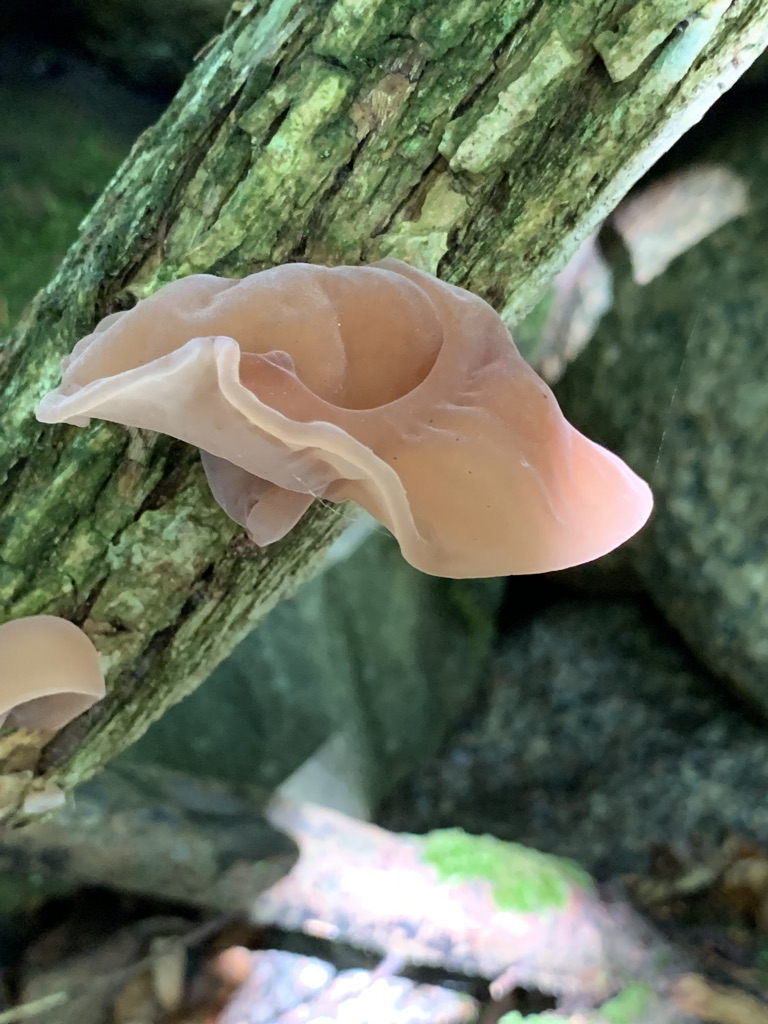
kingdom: Fungi
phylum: Basidiomycota
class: Agaricomycetes
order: Auriculariales
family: Auriculariaceae
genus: Auricularia
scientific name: Auricularia auricula-judae
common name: almindelig judasøre
